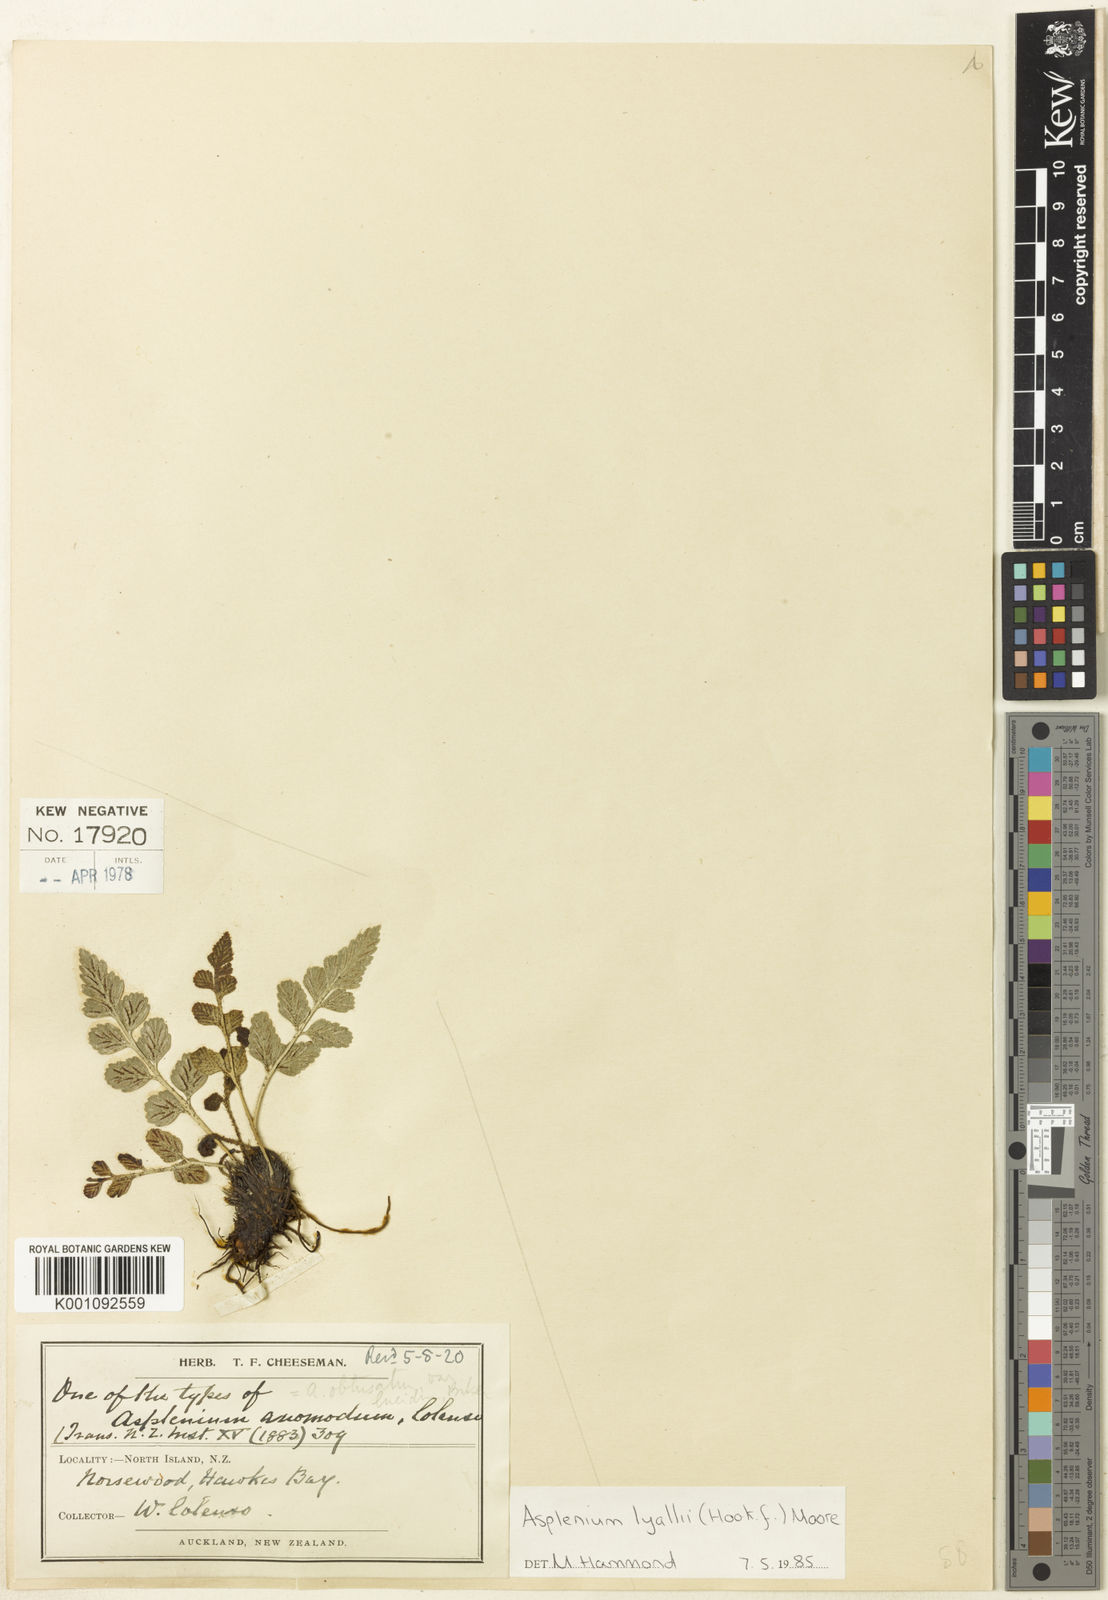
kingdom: Plantae
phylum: Tracheophyta
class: Polypodiopsida
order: Polypodiales
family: Aspleniaceae
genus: Asplenium
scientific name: Asplenium lyallii
